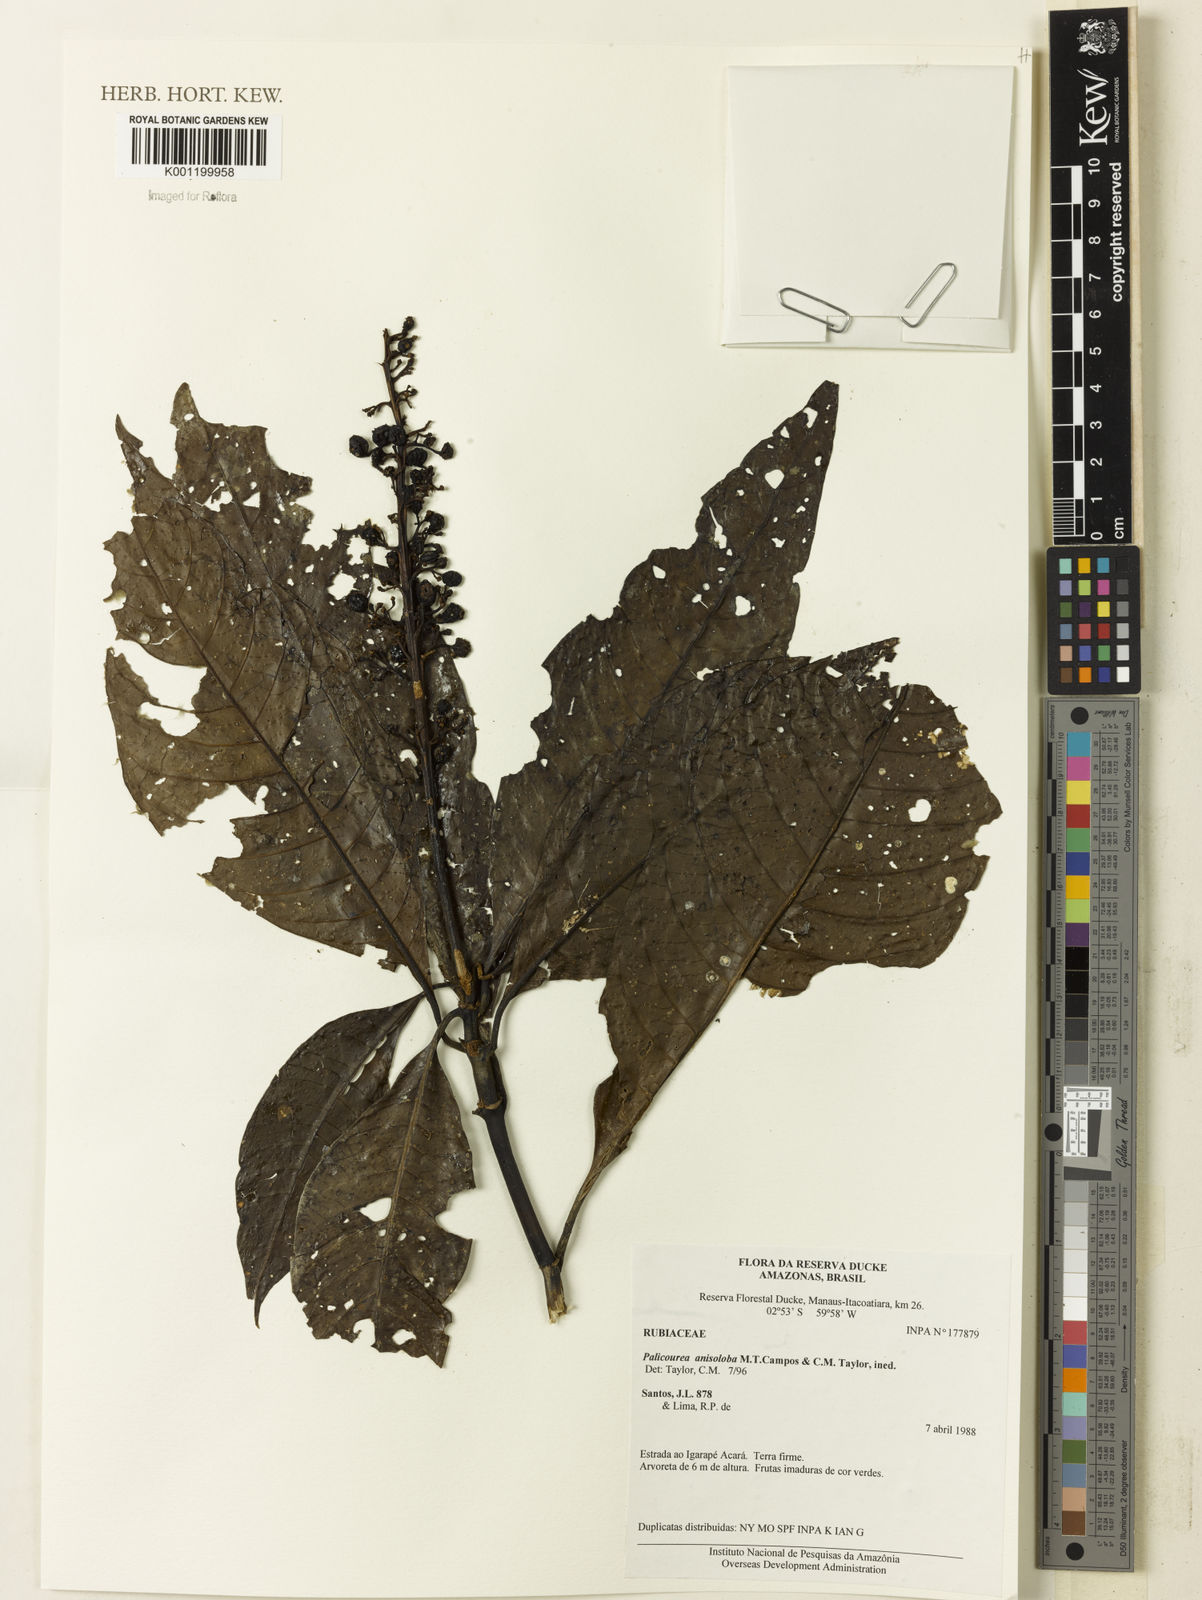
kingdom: Plantae
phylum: Tracheophyta
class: Magnoliopsida
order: Gentianales
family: Rubiaceae
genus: Palicourea
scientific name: Palicourea
